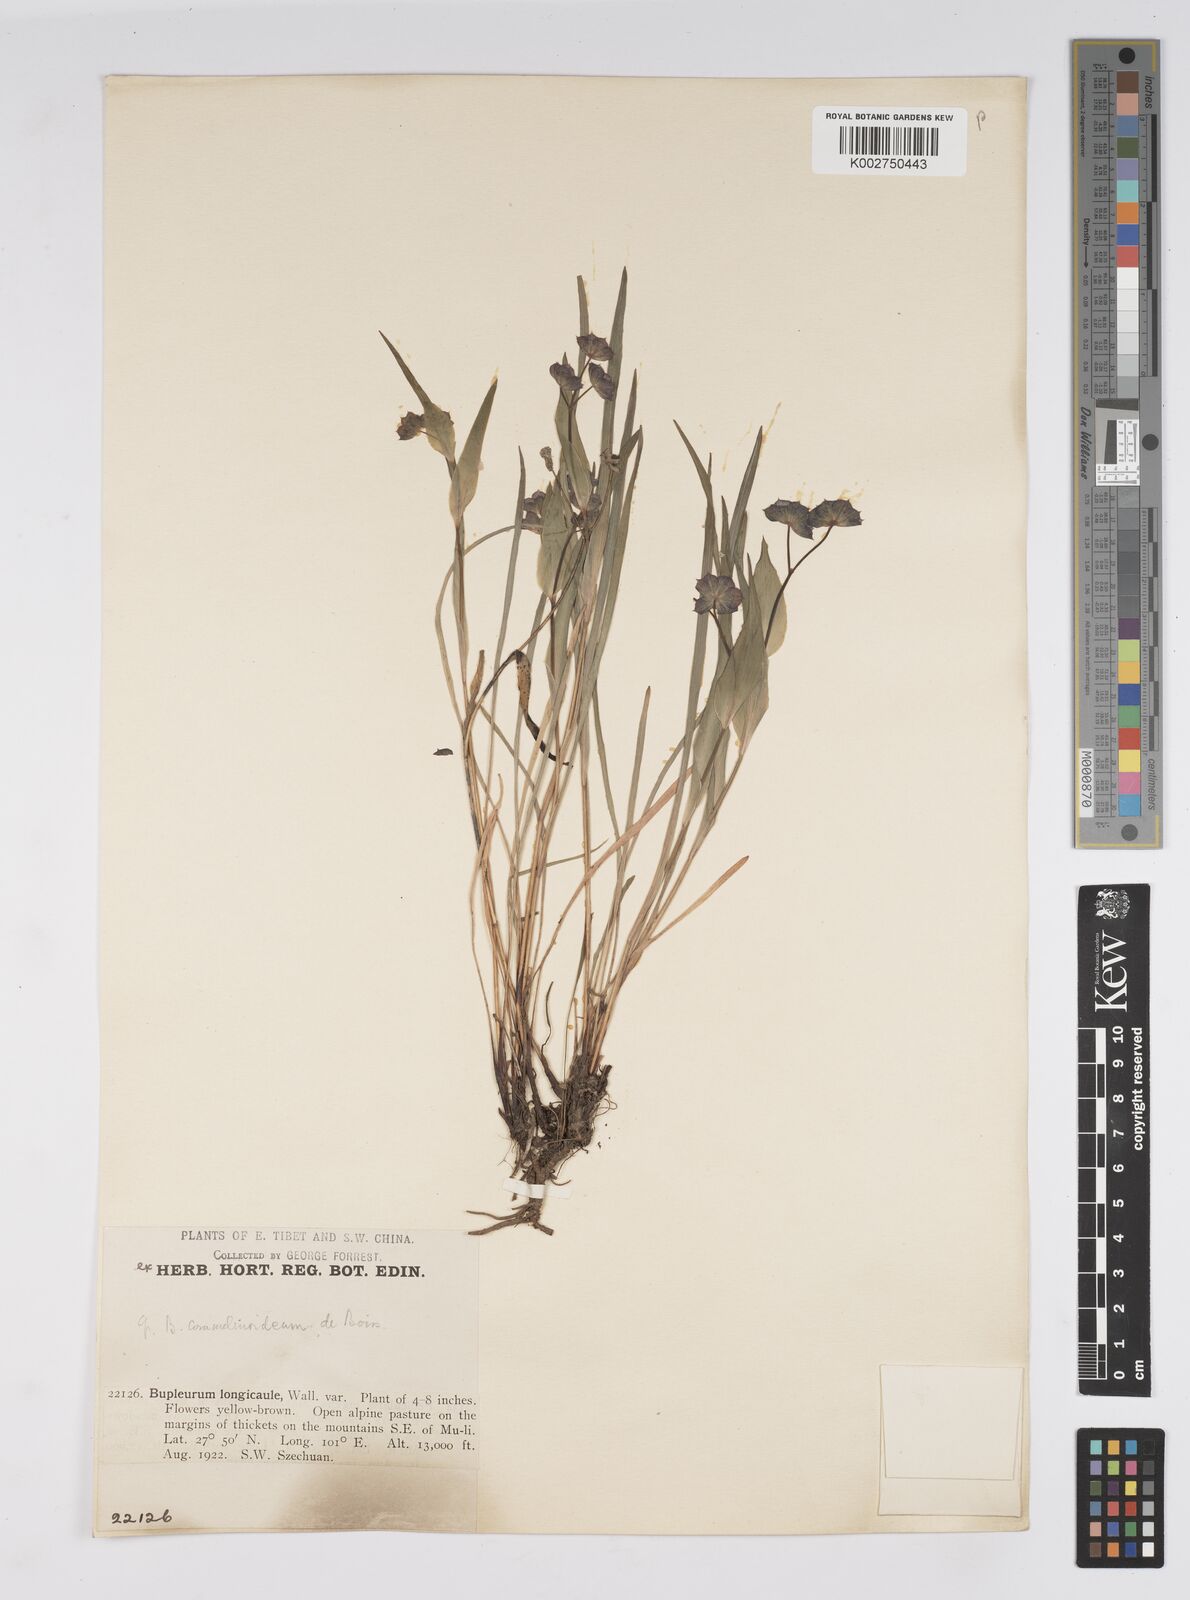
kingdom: Plantae
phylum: Tracheophyta
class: Magnoliopsida
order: Apiales
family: Apiaceae
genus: Bupleurum
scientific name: Bupleurum longicaule
